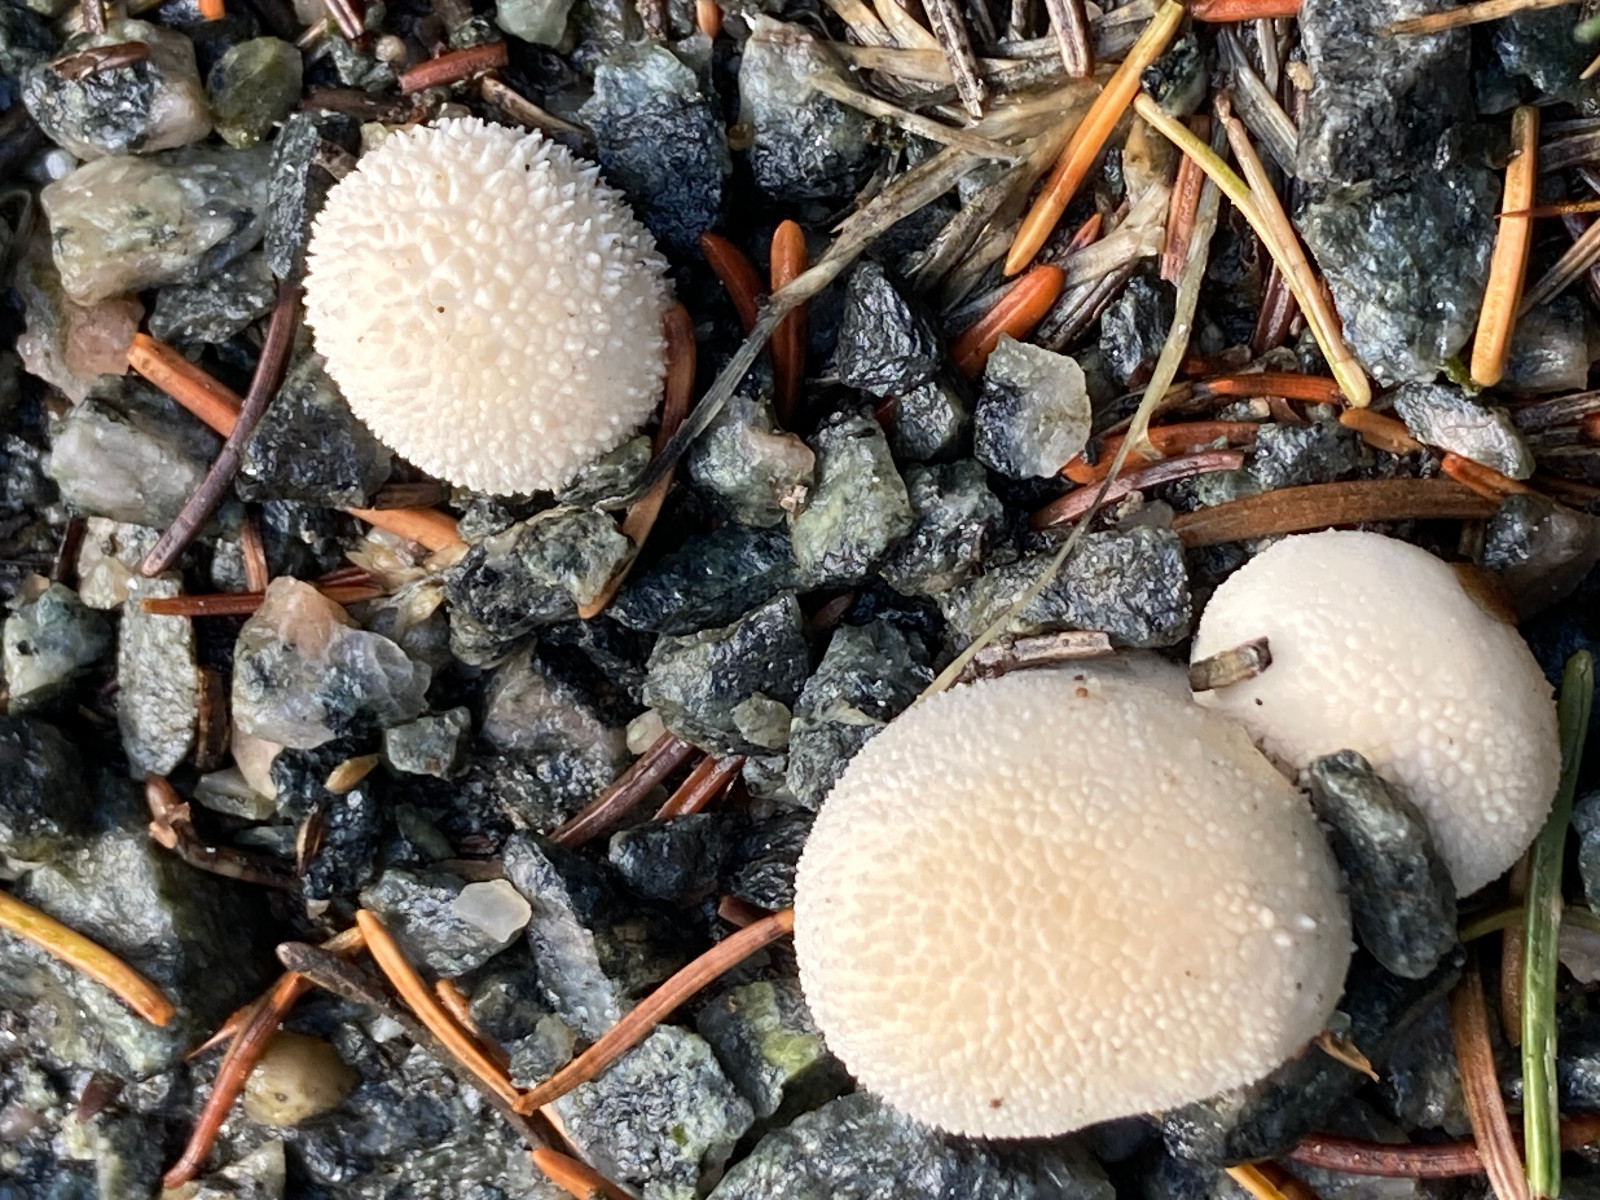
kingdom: Fungi
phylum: Basidiomycota
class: Agaricomycetes
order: Agaricales
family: Lycoperdaceae
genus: Lycoperdon
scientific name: Lycoperdon perlatum
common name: krystal-støvbold
